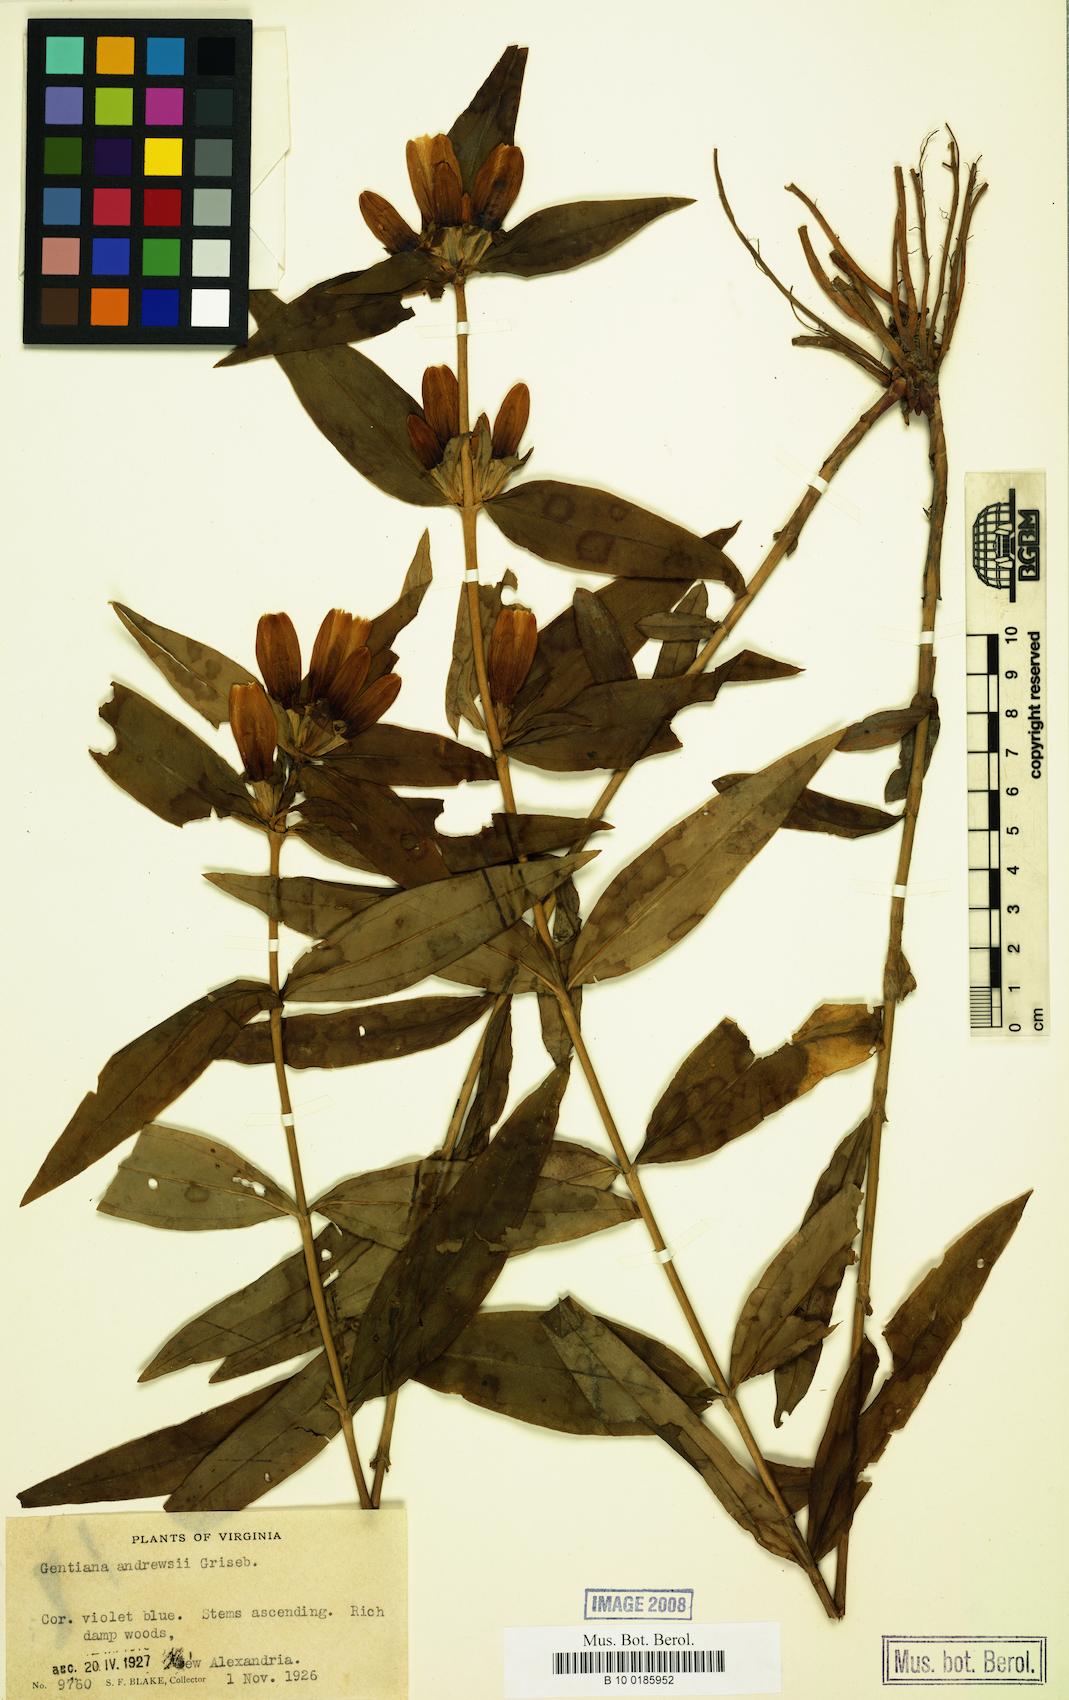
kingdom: Plantae
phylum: Tracheophyta
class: Magnoliopsida
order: Gentianales
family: Gentianaceae
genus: Gentiana
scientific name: Gentiana andrewsii
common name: Bottle gentian
